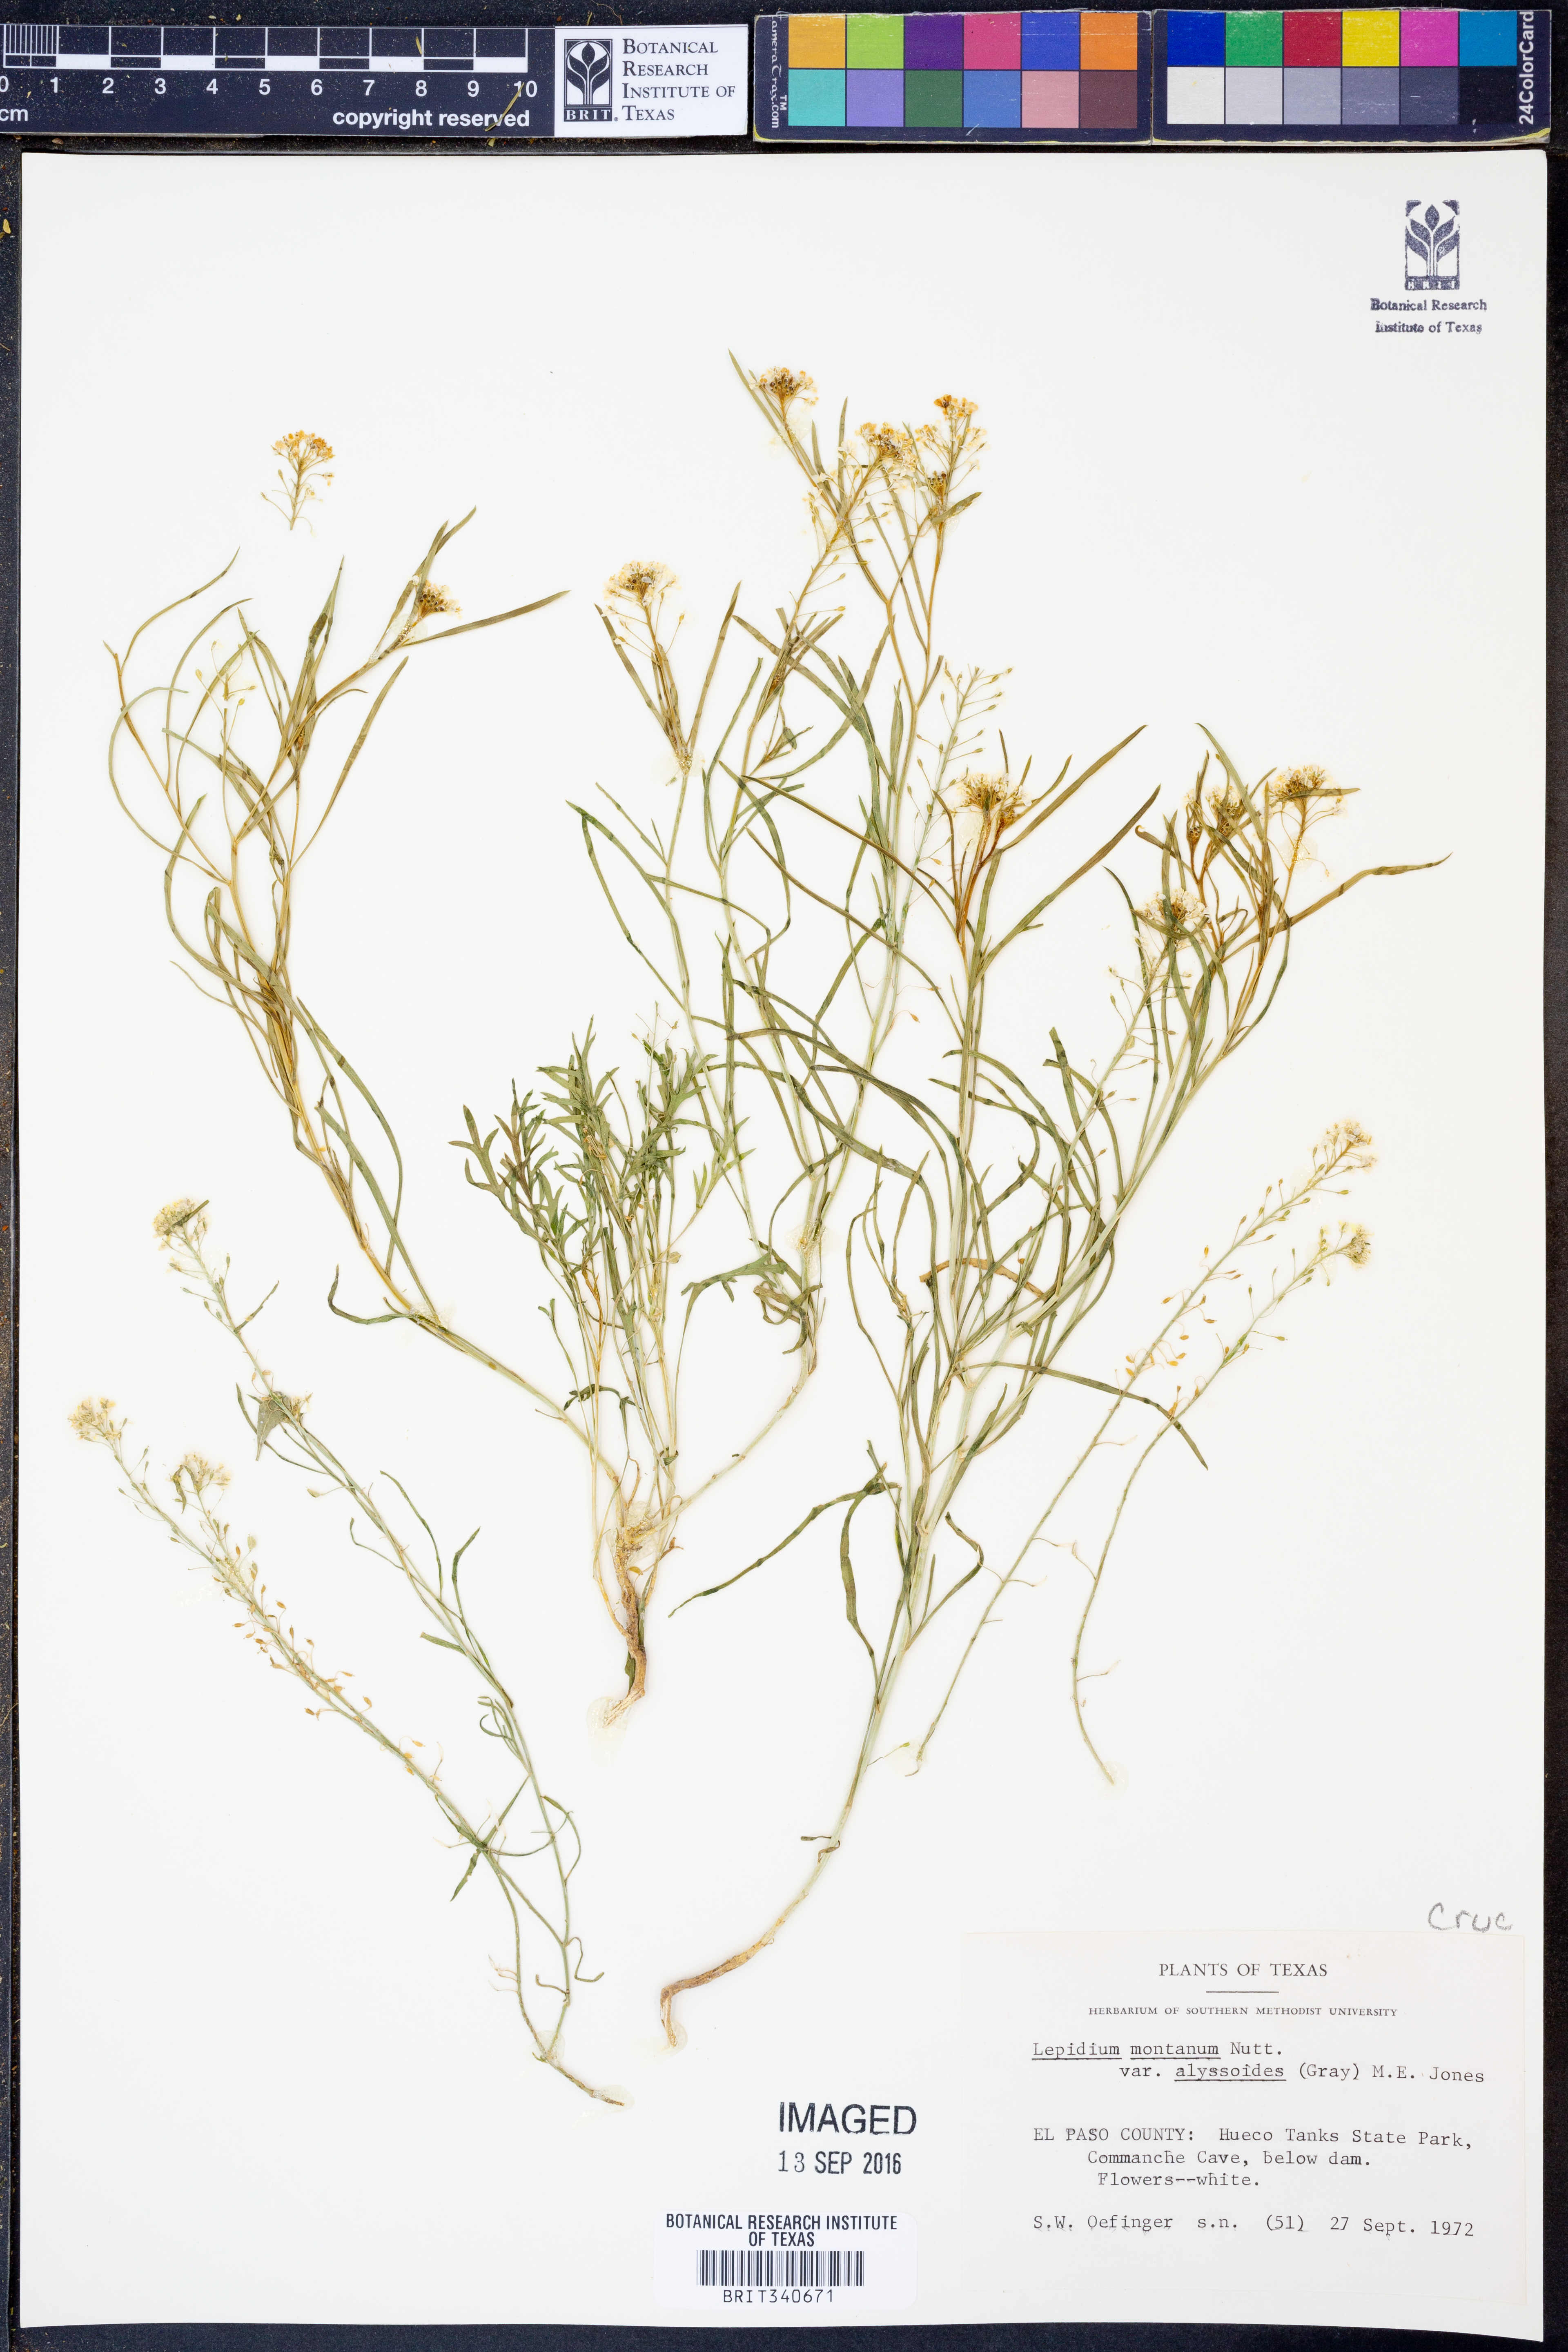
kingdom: Plantae
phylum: Tracheophyta
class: Magnoliopsida
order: Brassicales
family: Brassicaceae
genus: Lepidium
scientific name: Lepidium alyssoides
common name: Mesa pepperweed
